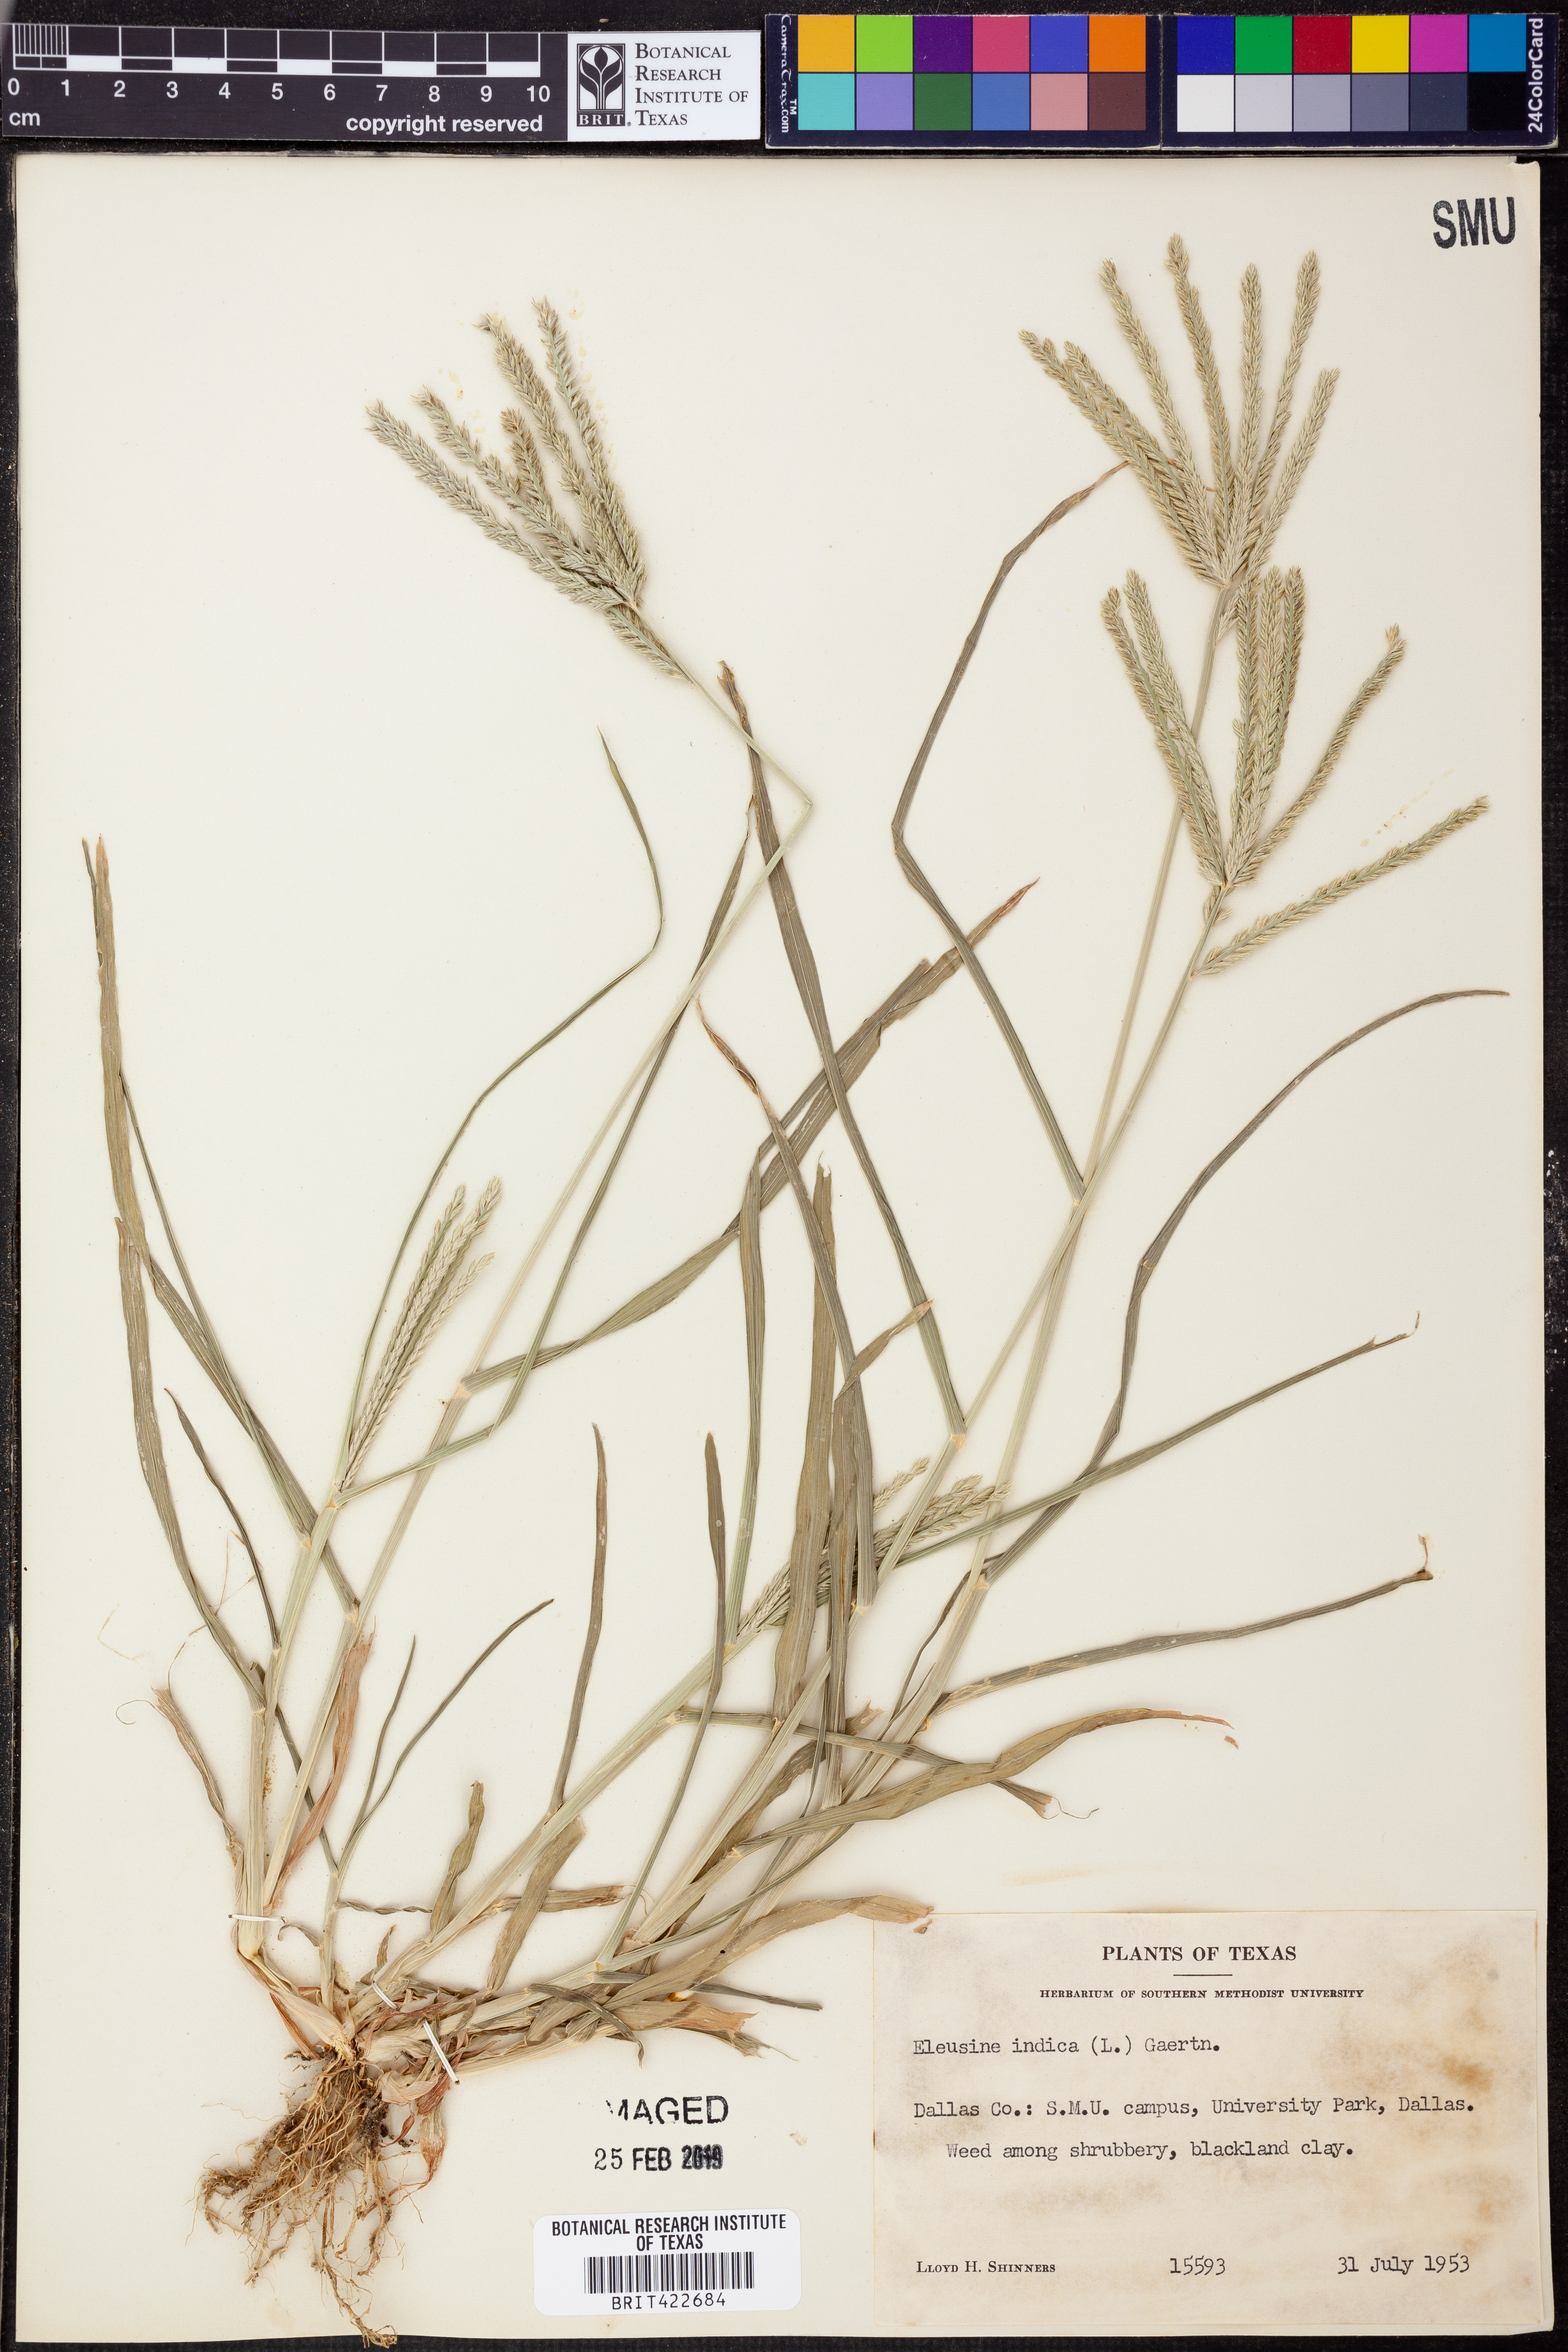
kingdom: Plantae
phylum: Tracheophyta
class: Liliopsida
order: Poales
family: Poaceae
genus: Eleusine
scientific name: Eleusine indica
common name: Yard-grass
